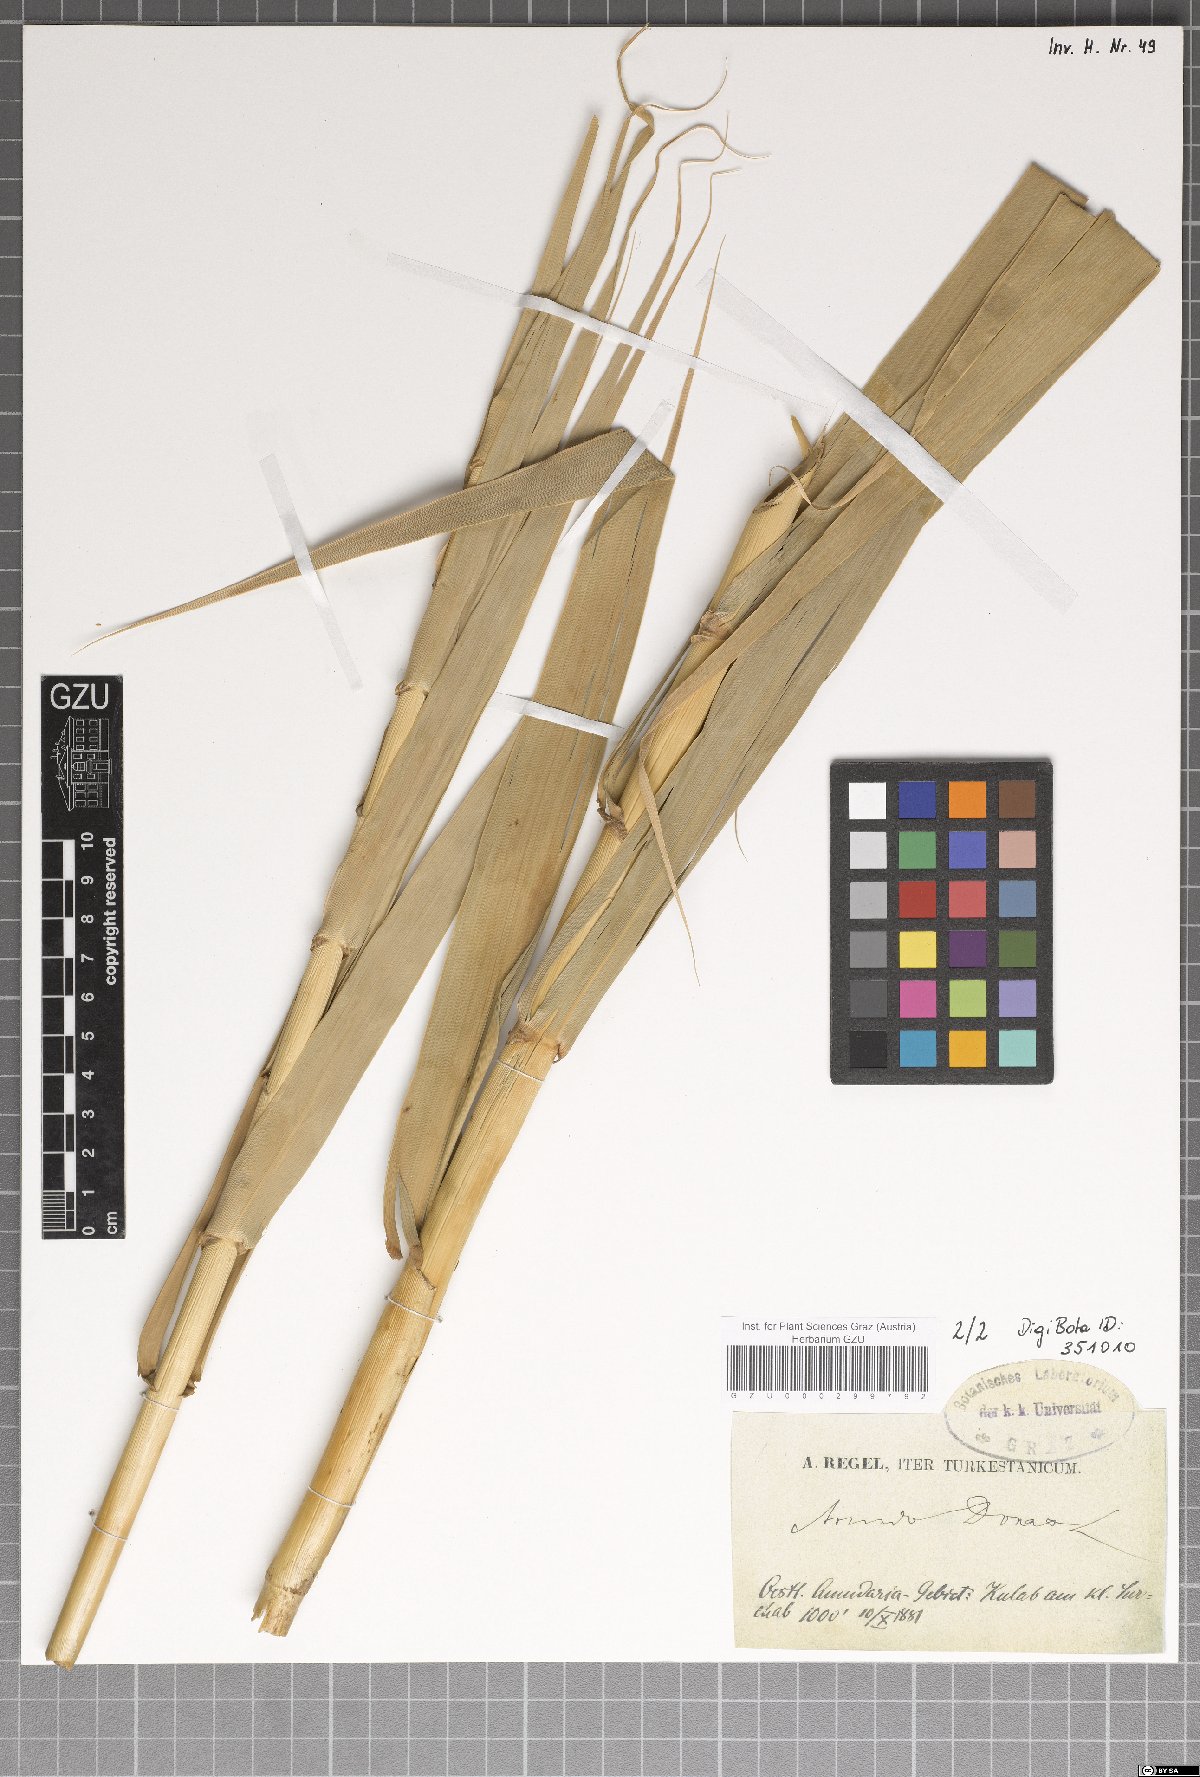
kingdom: Plantae
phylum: Tracheophyta
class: Liliopsida
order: Poales
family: Poaceae
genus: Arundo
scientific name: Arundo donax
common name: Giant reed
